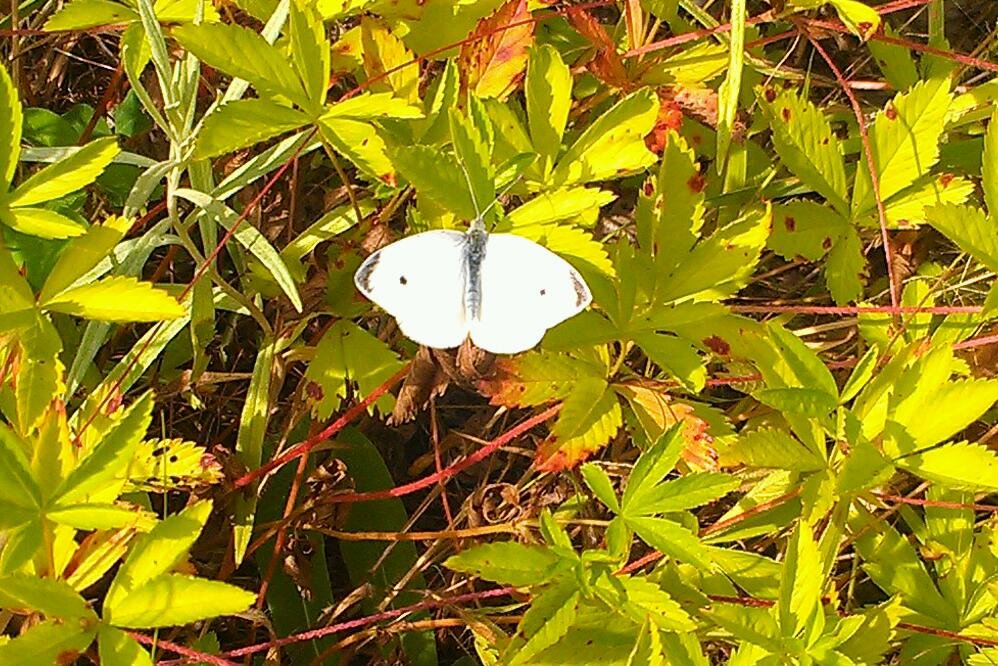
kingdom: Animalia
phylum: Arthropoda
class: Insecta
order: Lepidoptera
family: Pieridae
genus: Pieris
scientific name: Pieris rapae
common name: Cabbage White
